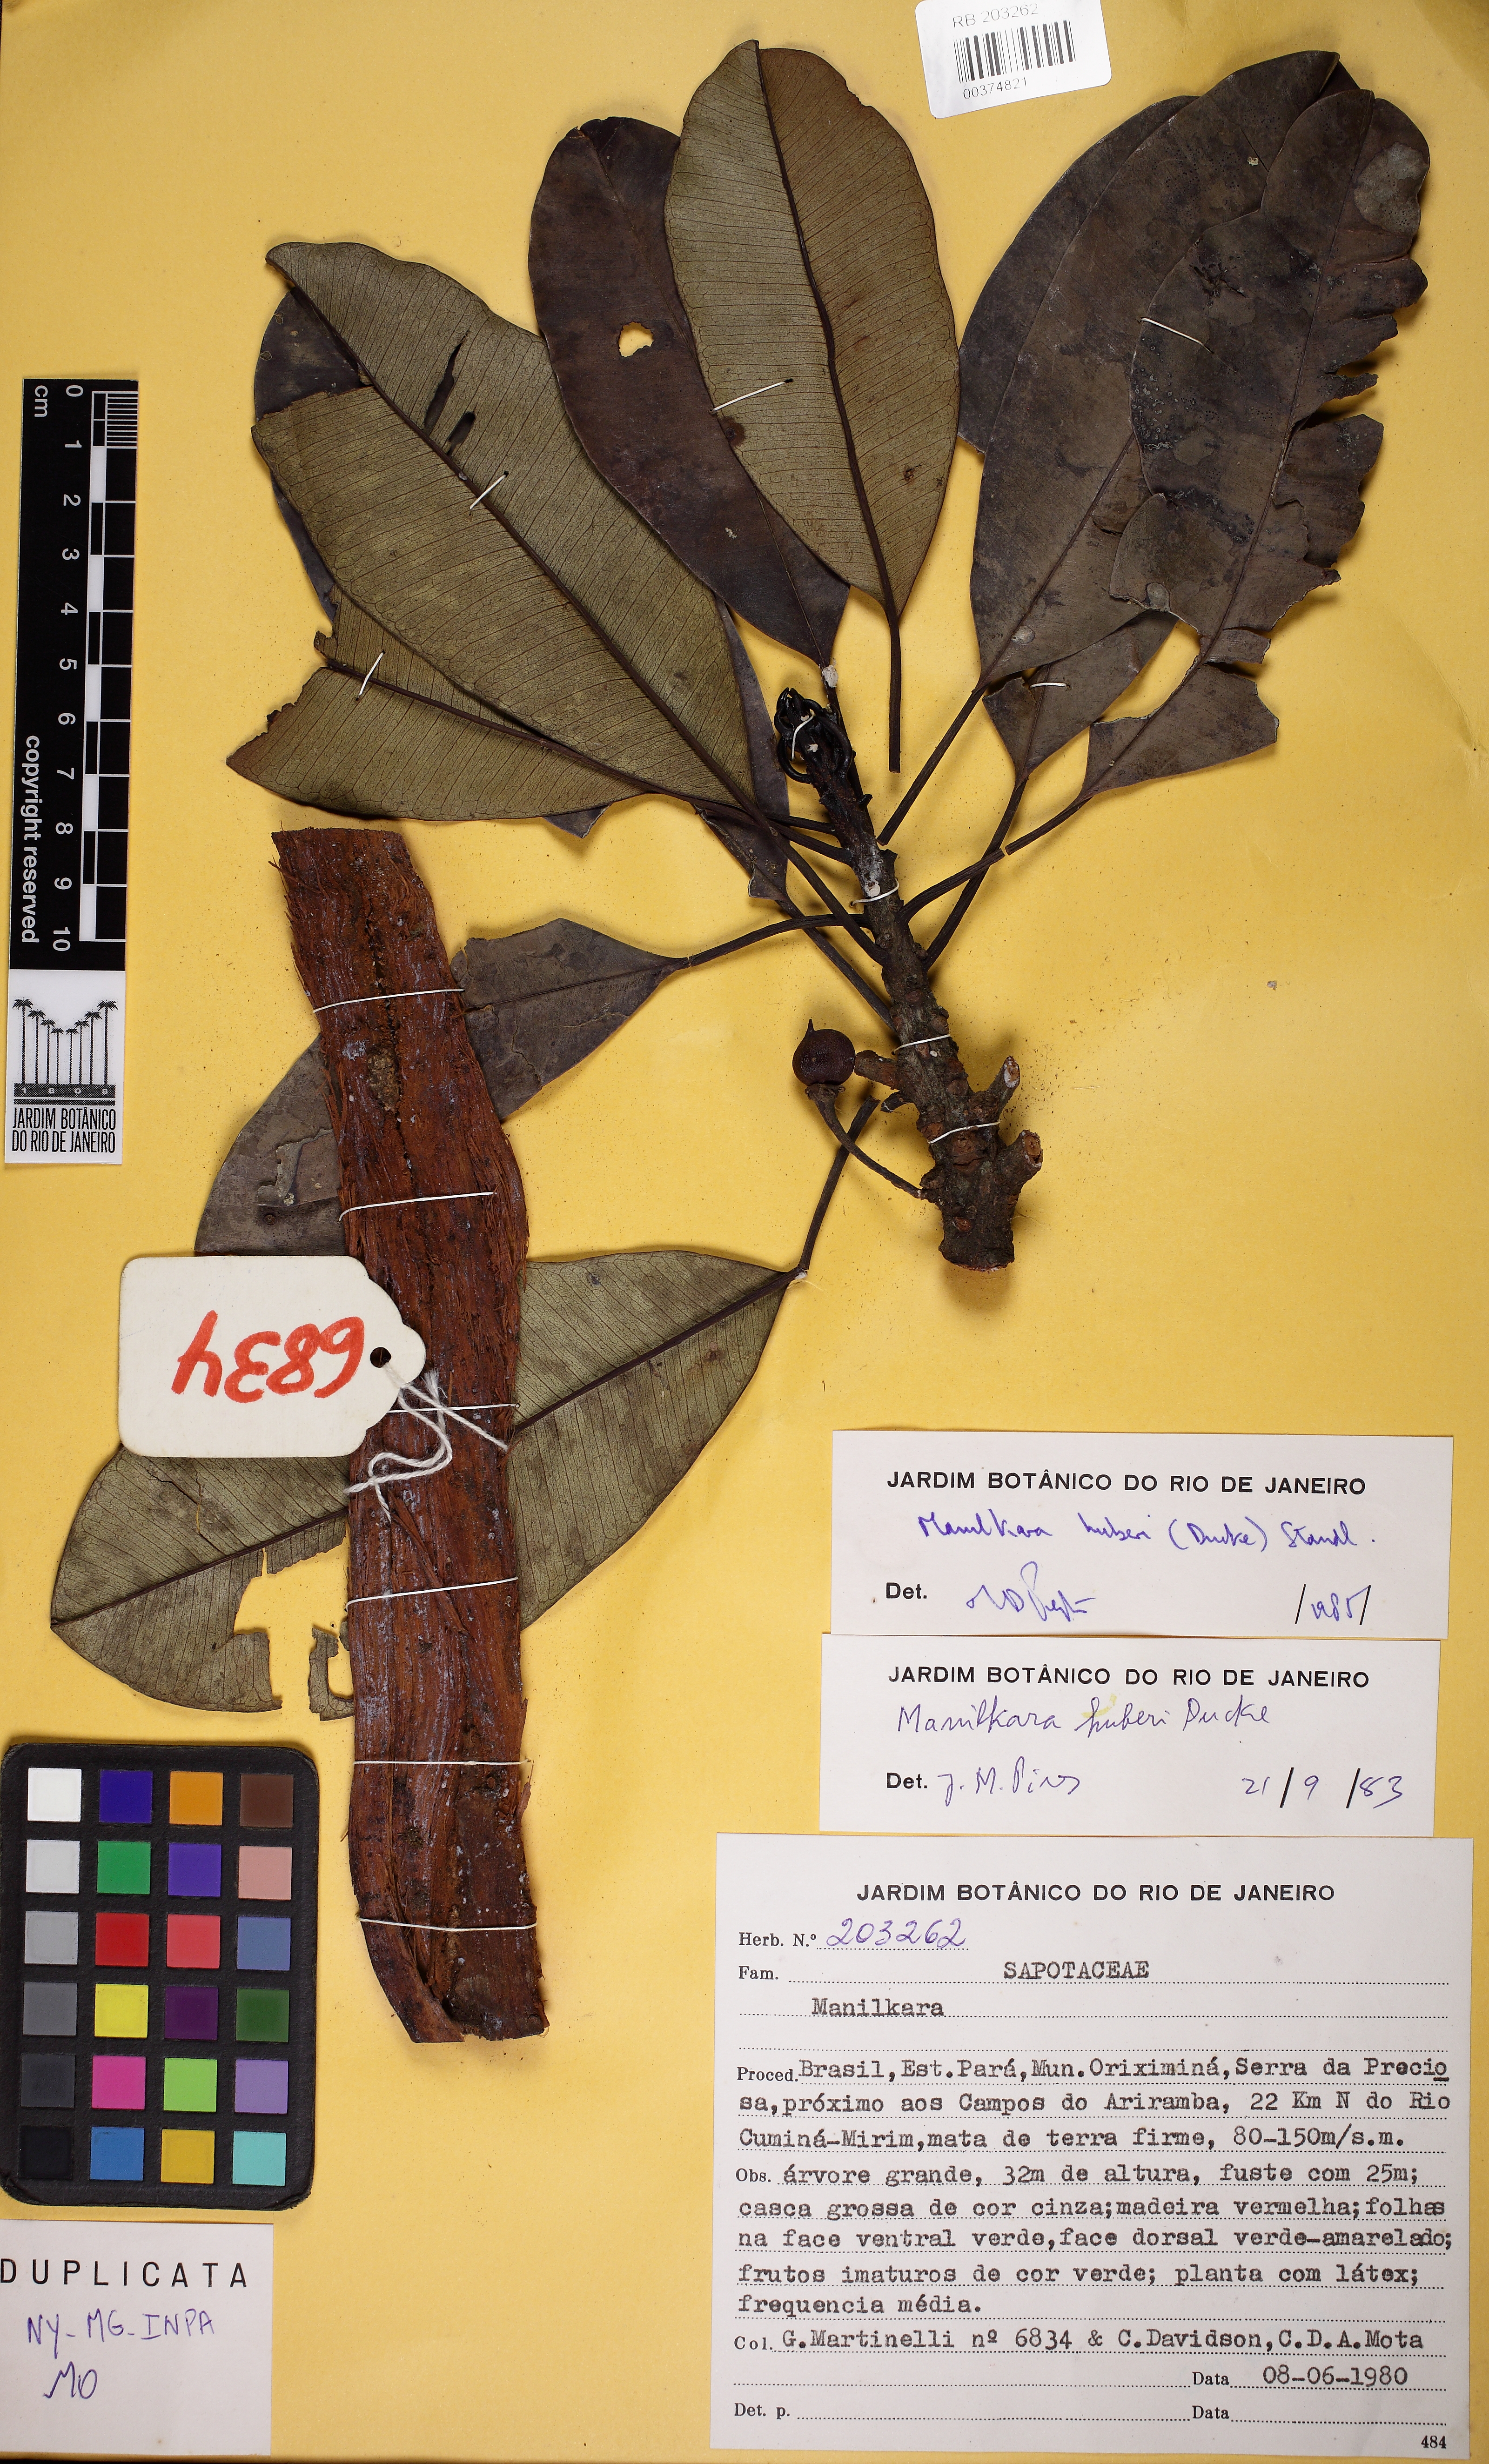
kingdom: Plantae
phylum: Tracheophyta
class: Magnoliopsida
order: Ericales
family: Sapotaceae
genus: Manilkara
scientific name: Manilkara
